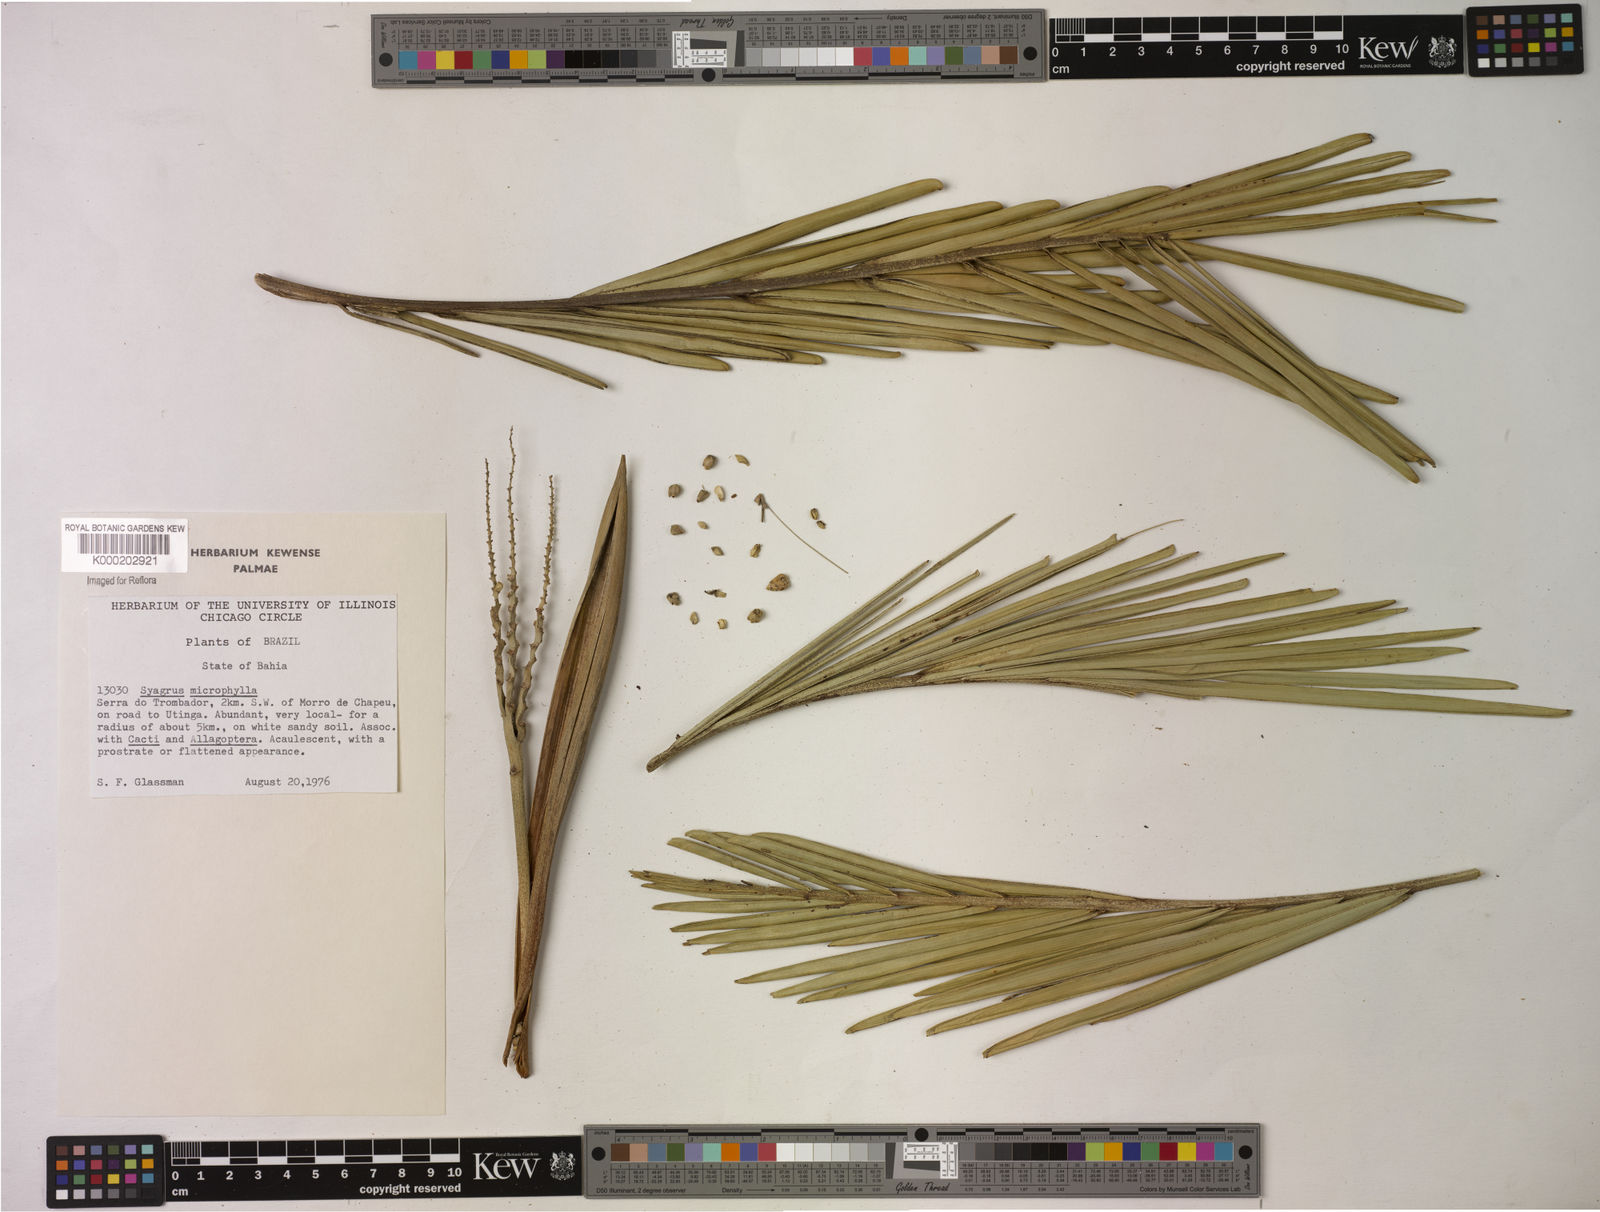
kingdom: Plantae
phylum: Tracheophyta
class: Liliopsida
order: Arecales
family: Arecaceae
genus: Syagrus
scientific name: Syagrus microphylla
